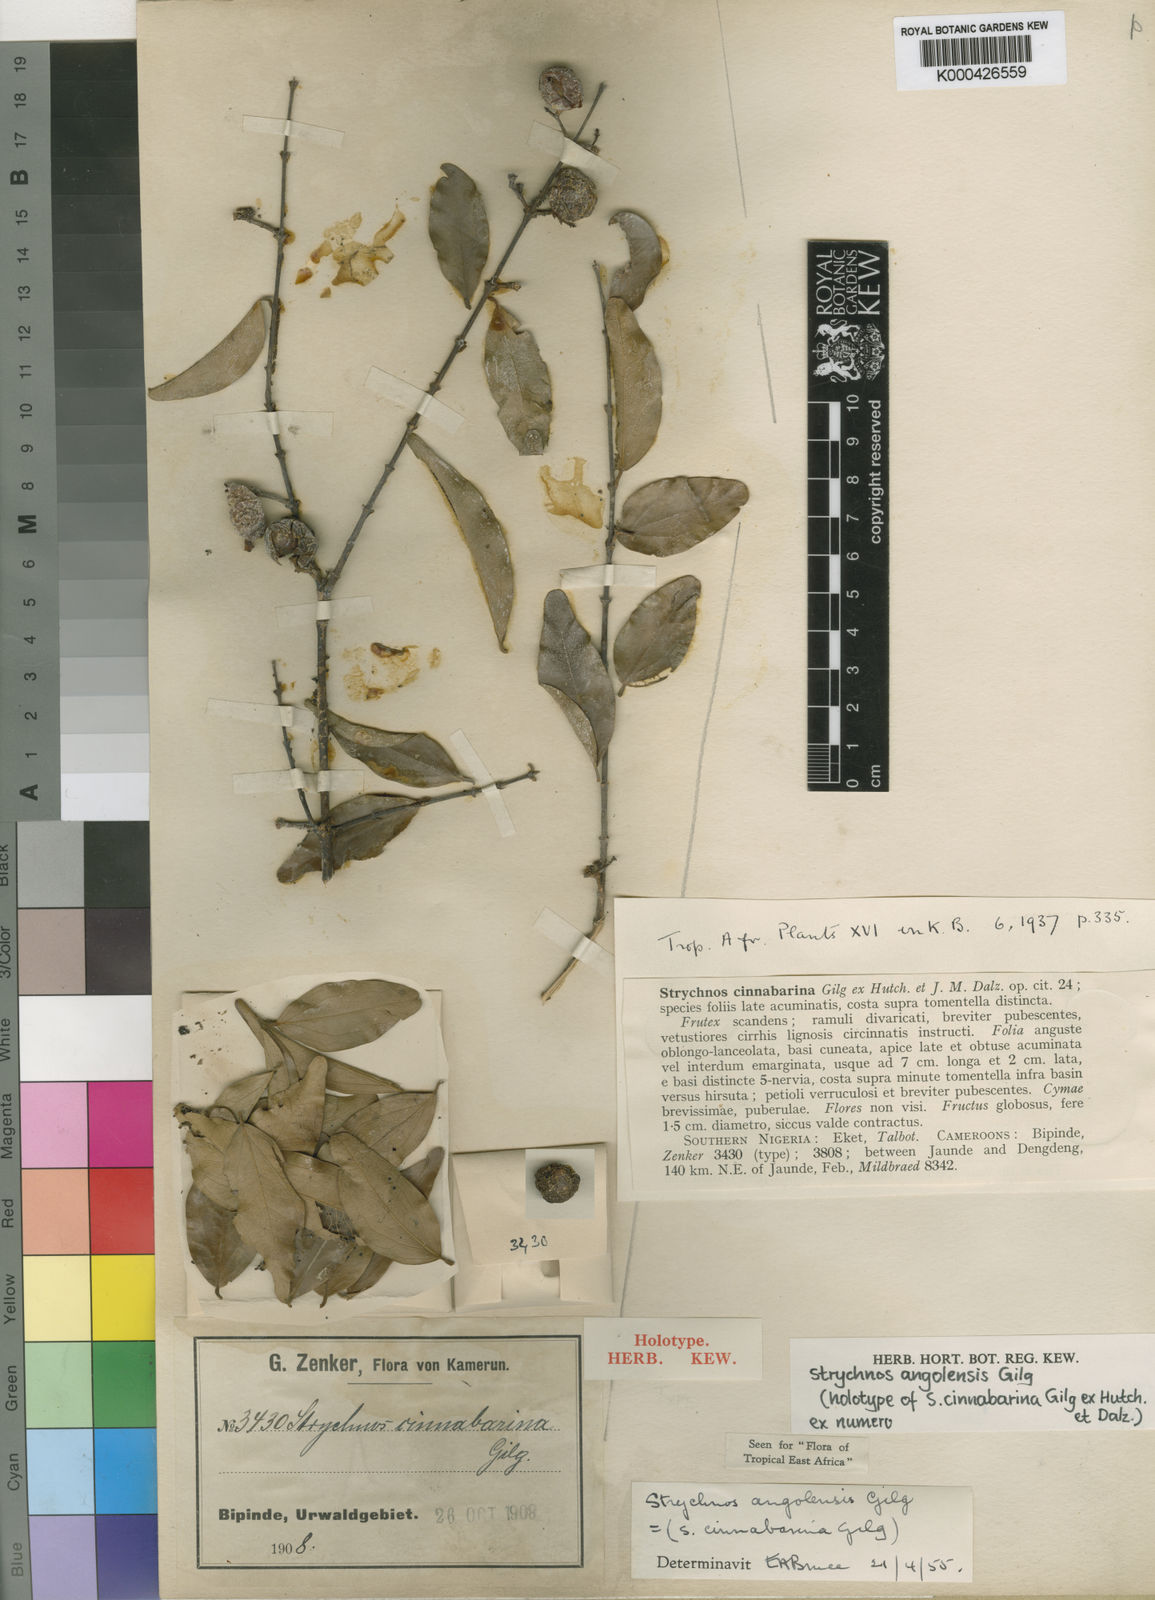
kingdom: Plantae
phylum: Tracheophyta
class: Magnoliopsida
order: Gentianales
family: Loganiaceae
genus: Strychnos
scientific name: Strychnos angolensis
